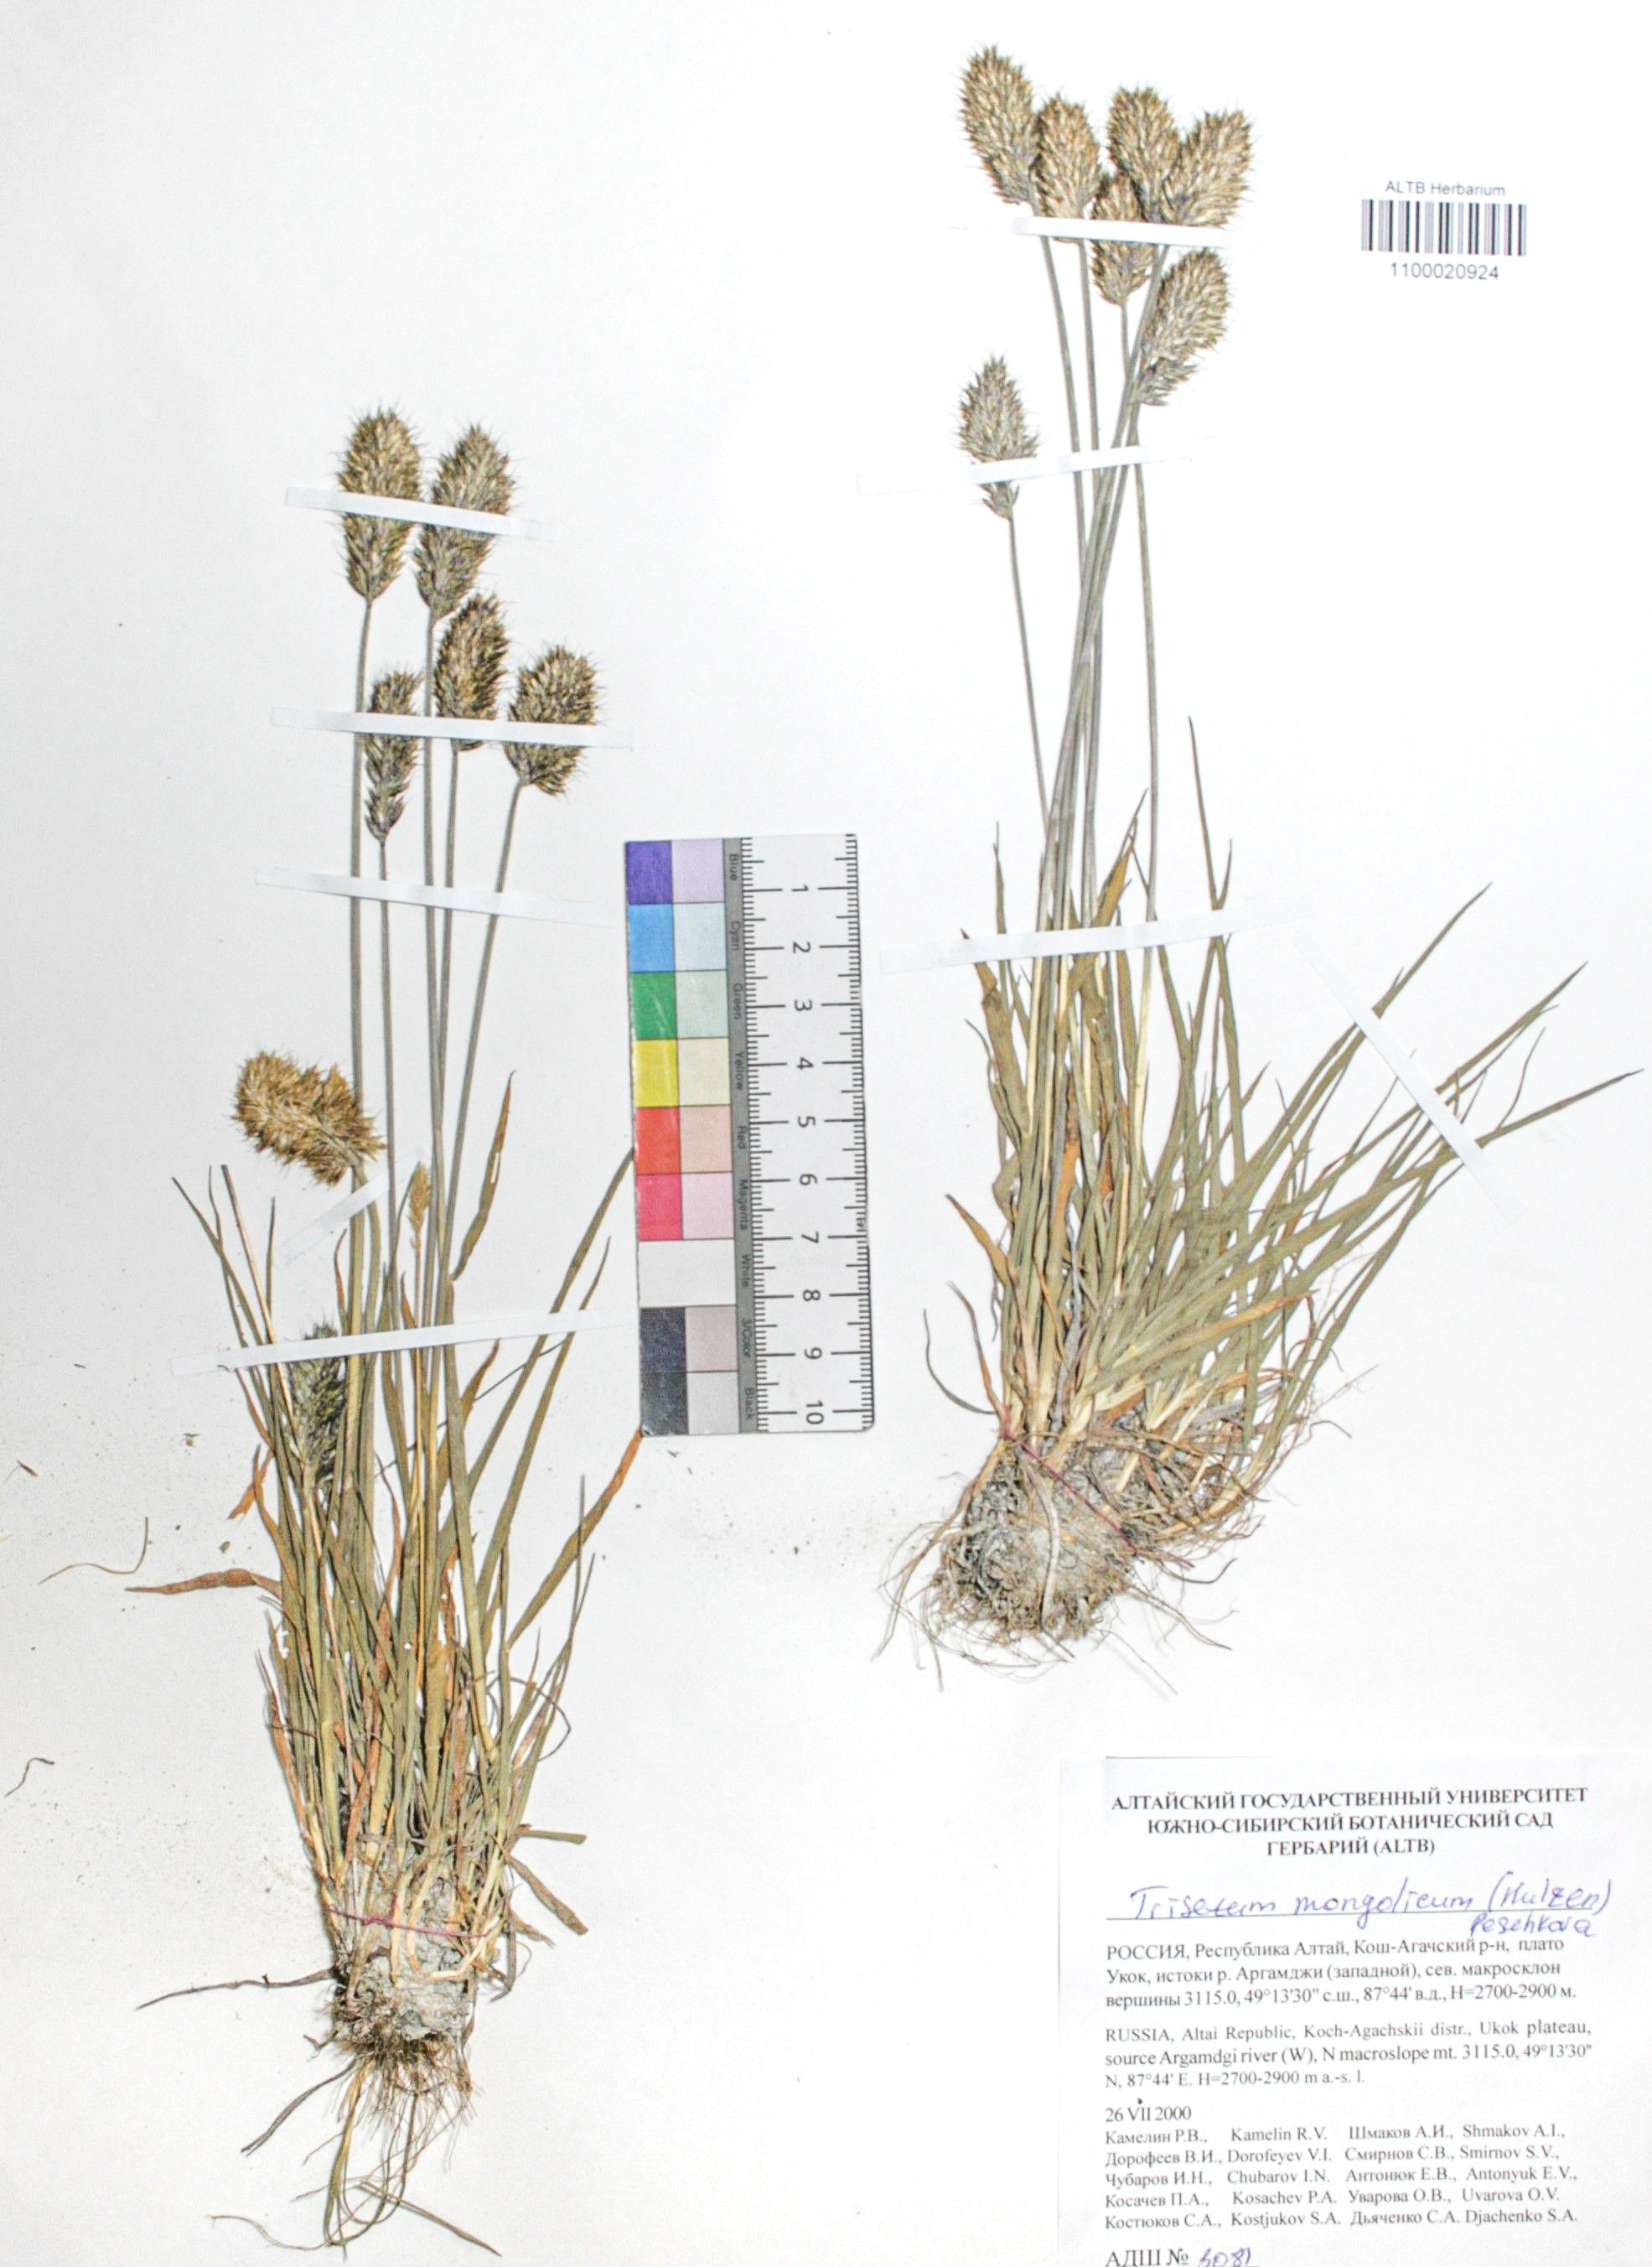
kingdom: Plantae
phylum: Tracheophyta
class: Liliopsida
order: Poales
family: Poaceae
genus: Koeleria
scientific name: Koeleria spicata
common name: Mountain trisetum
